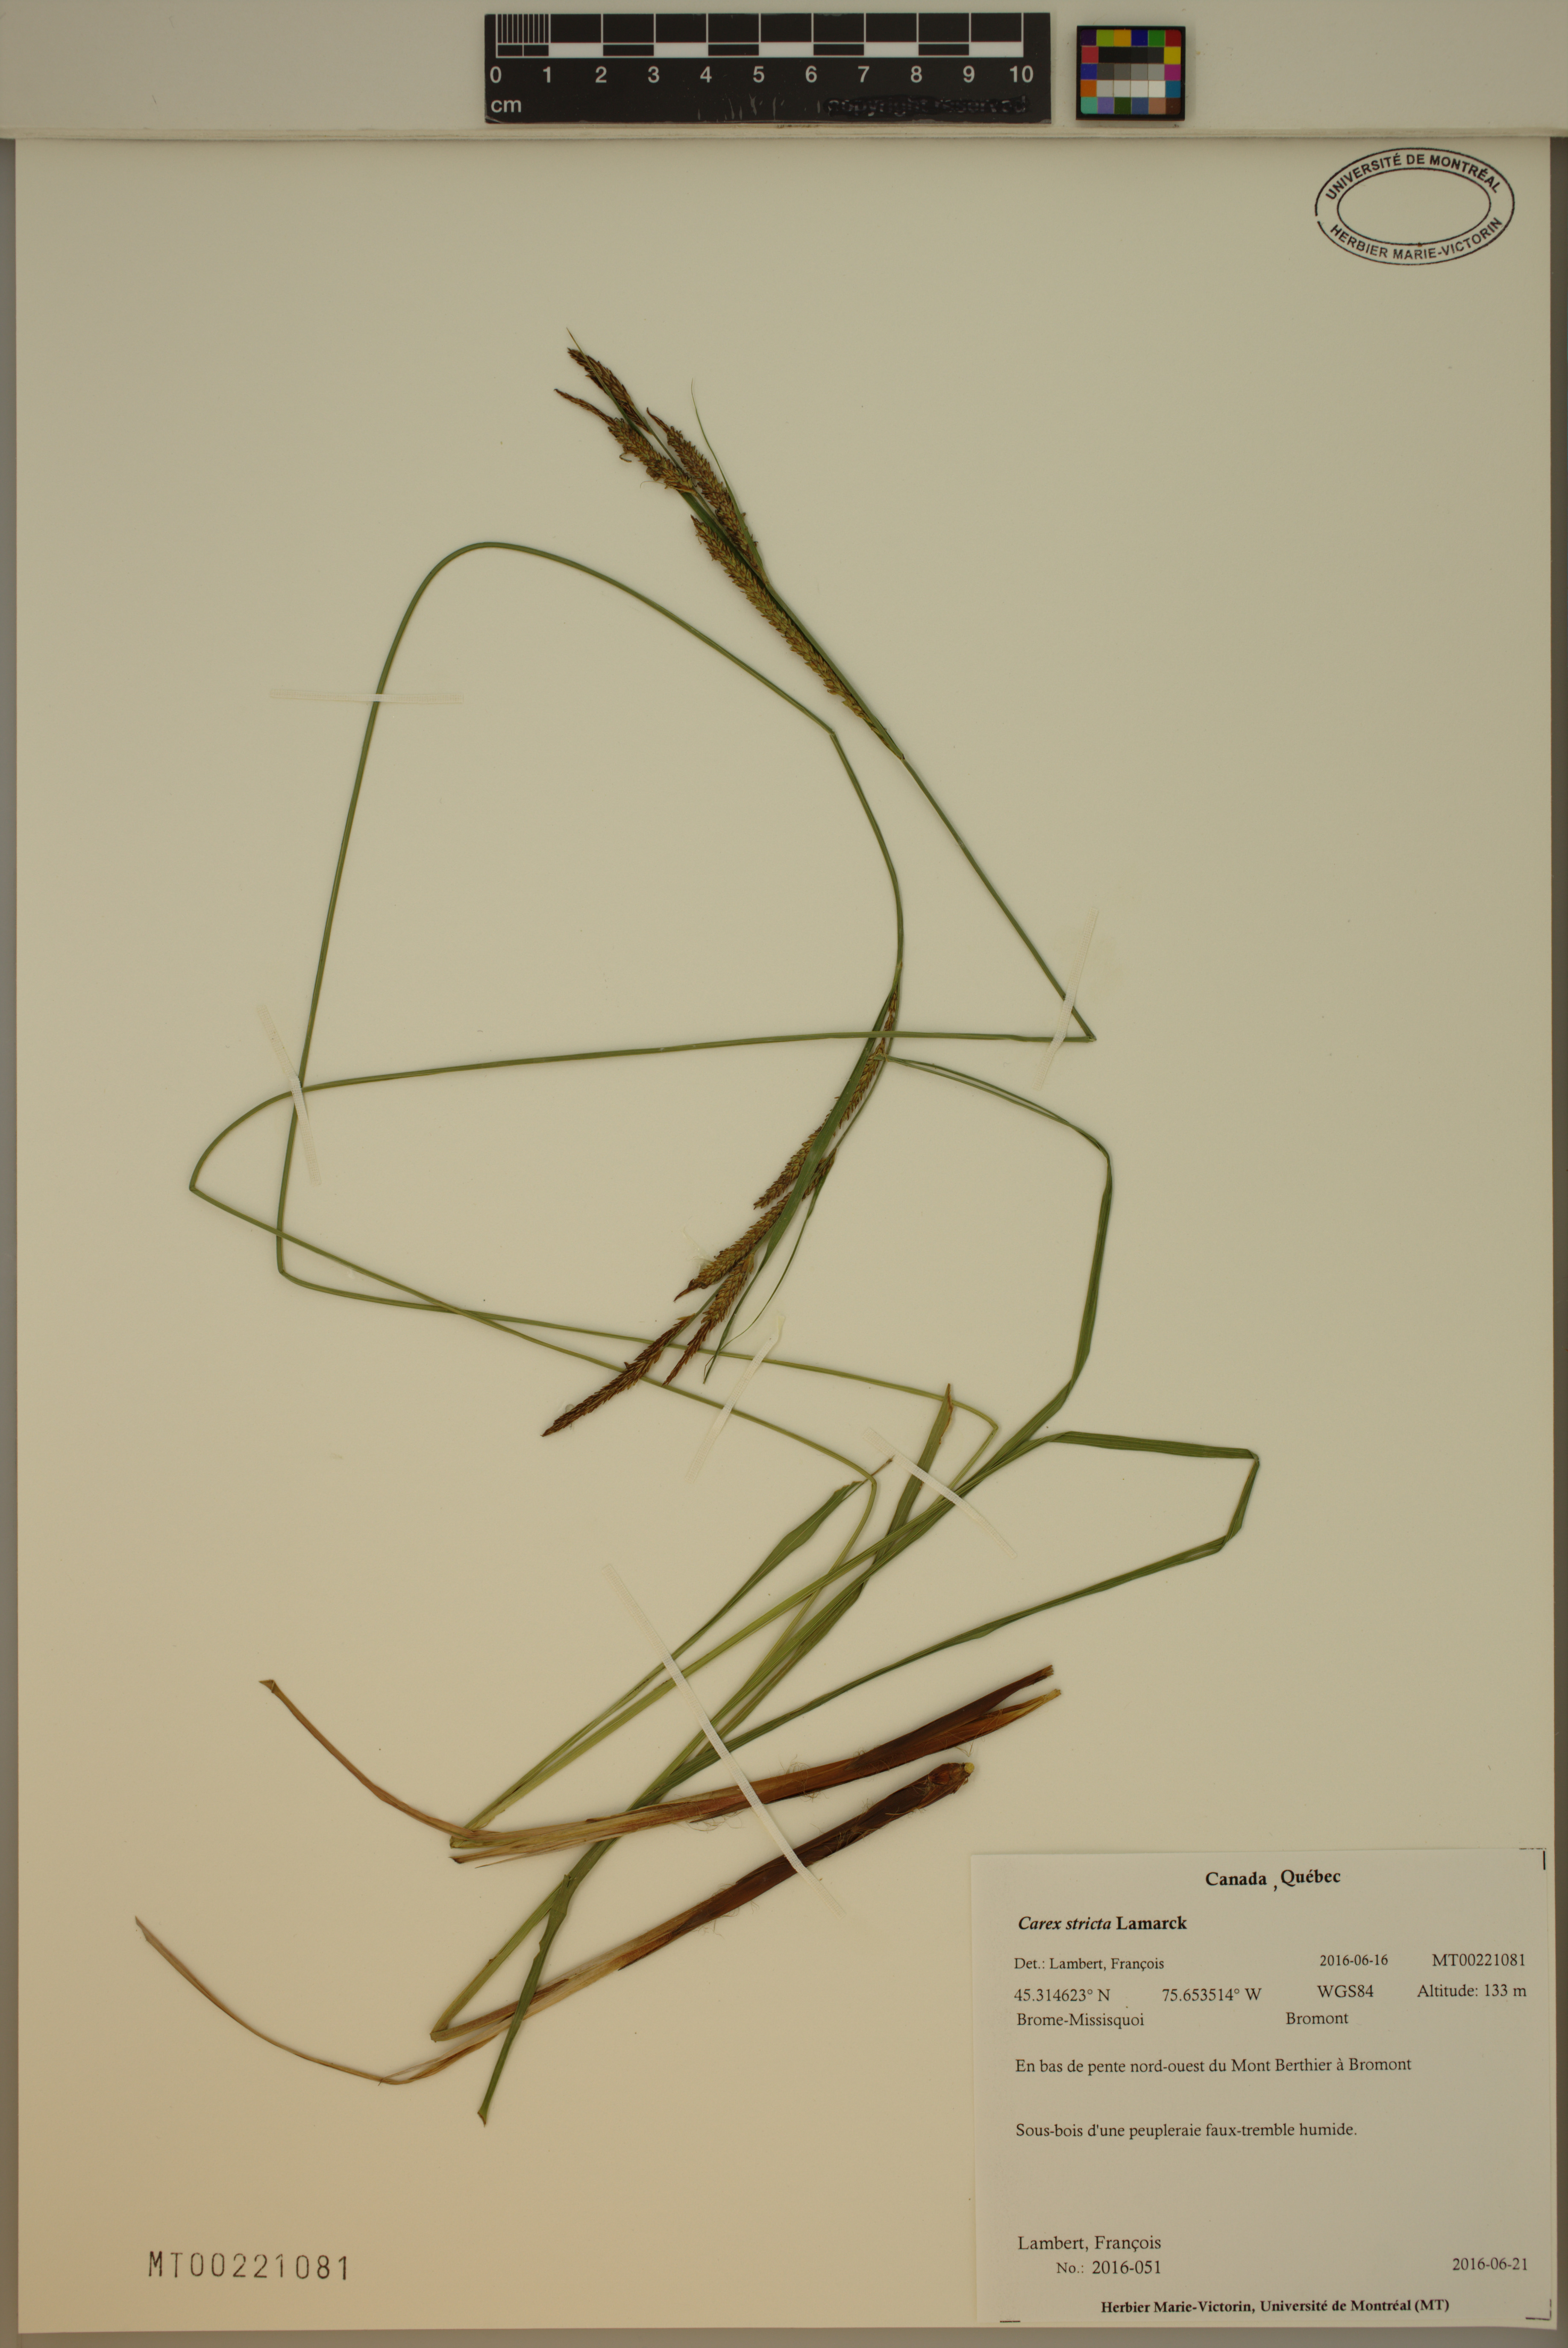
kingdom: Plantae
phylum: Tracheophyta
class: Liliopsida
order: Poales
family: Cyperaceae
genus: Carex
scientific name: Carex stricta
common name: Hummock sedge
